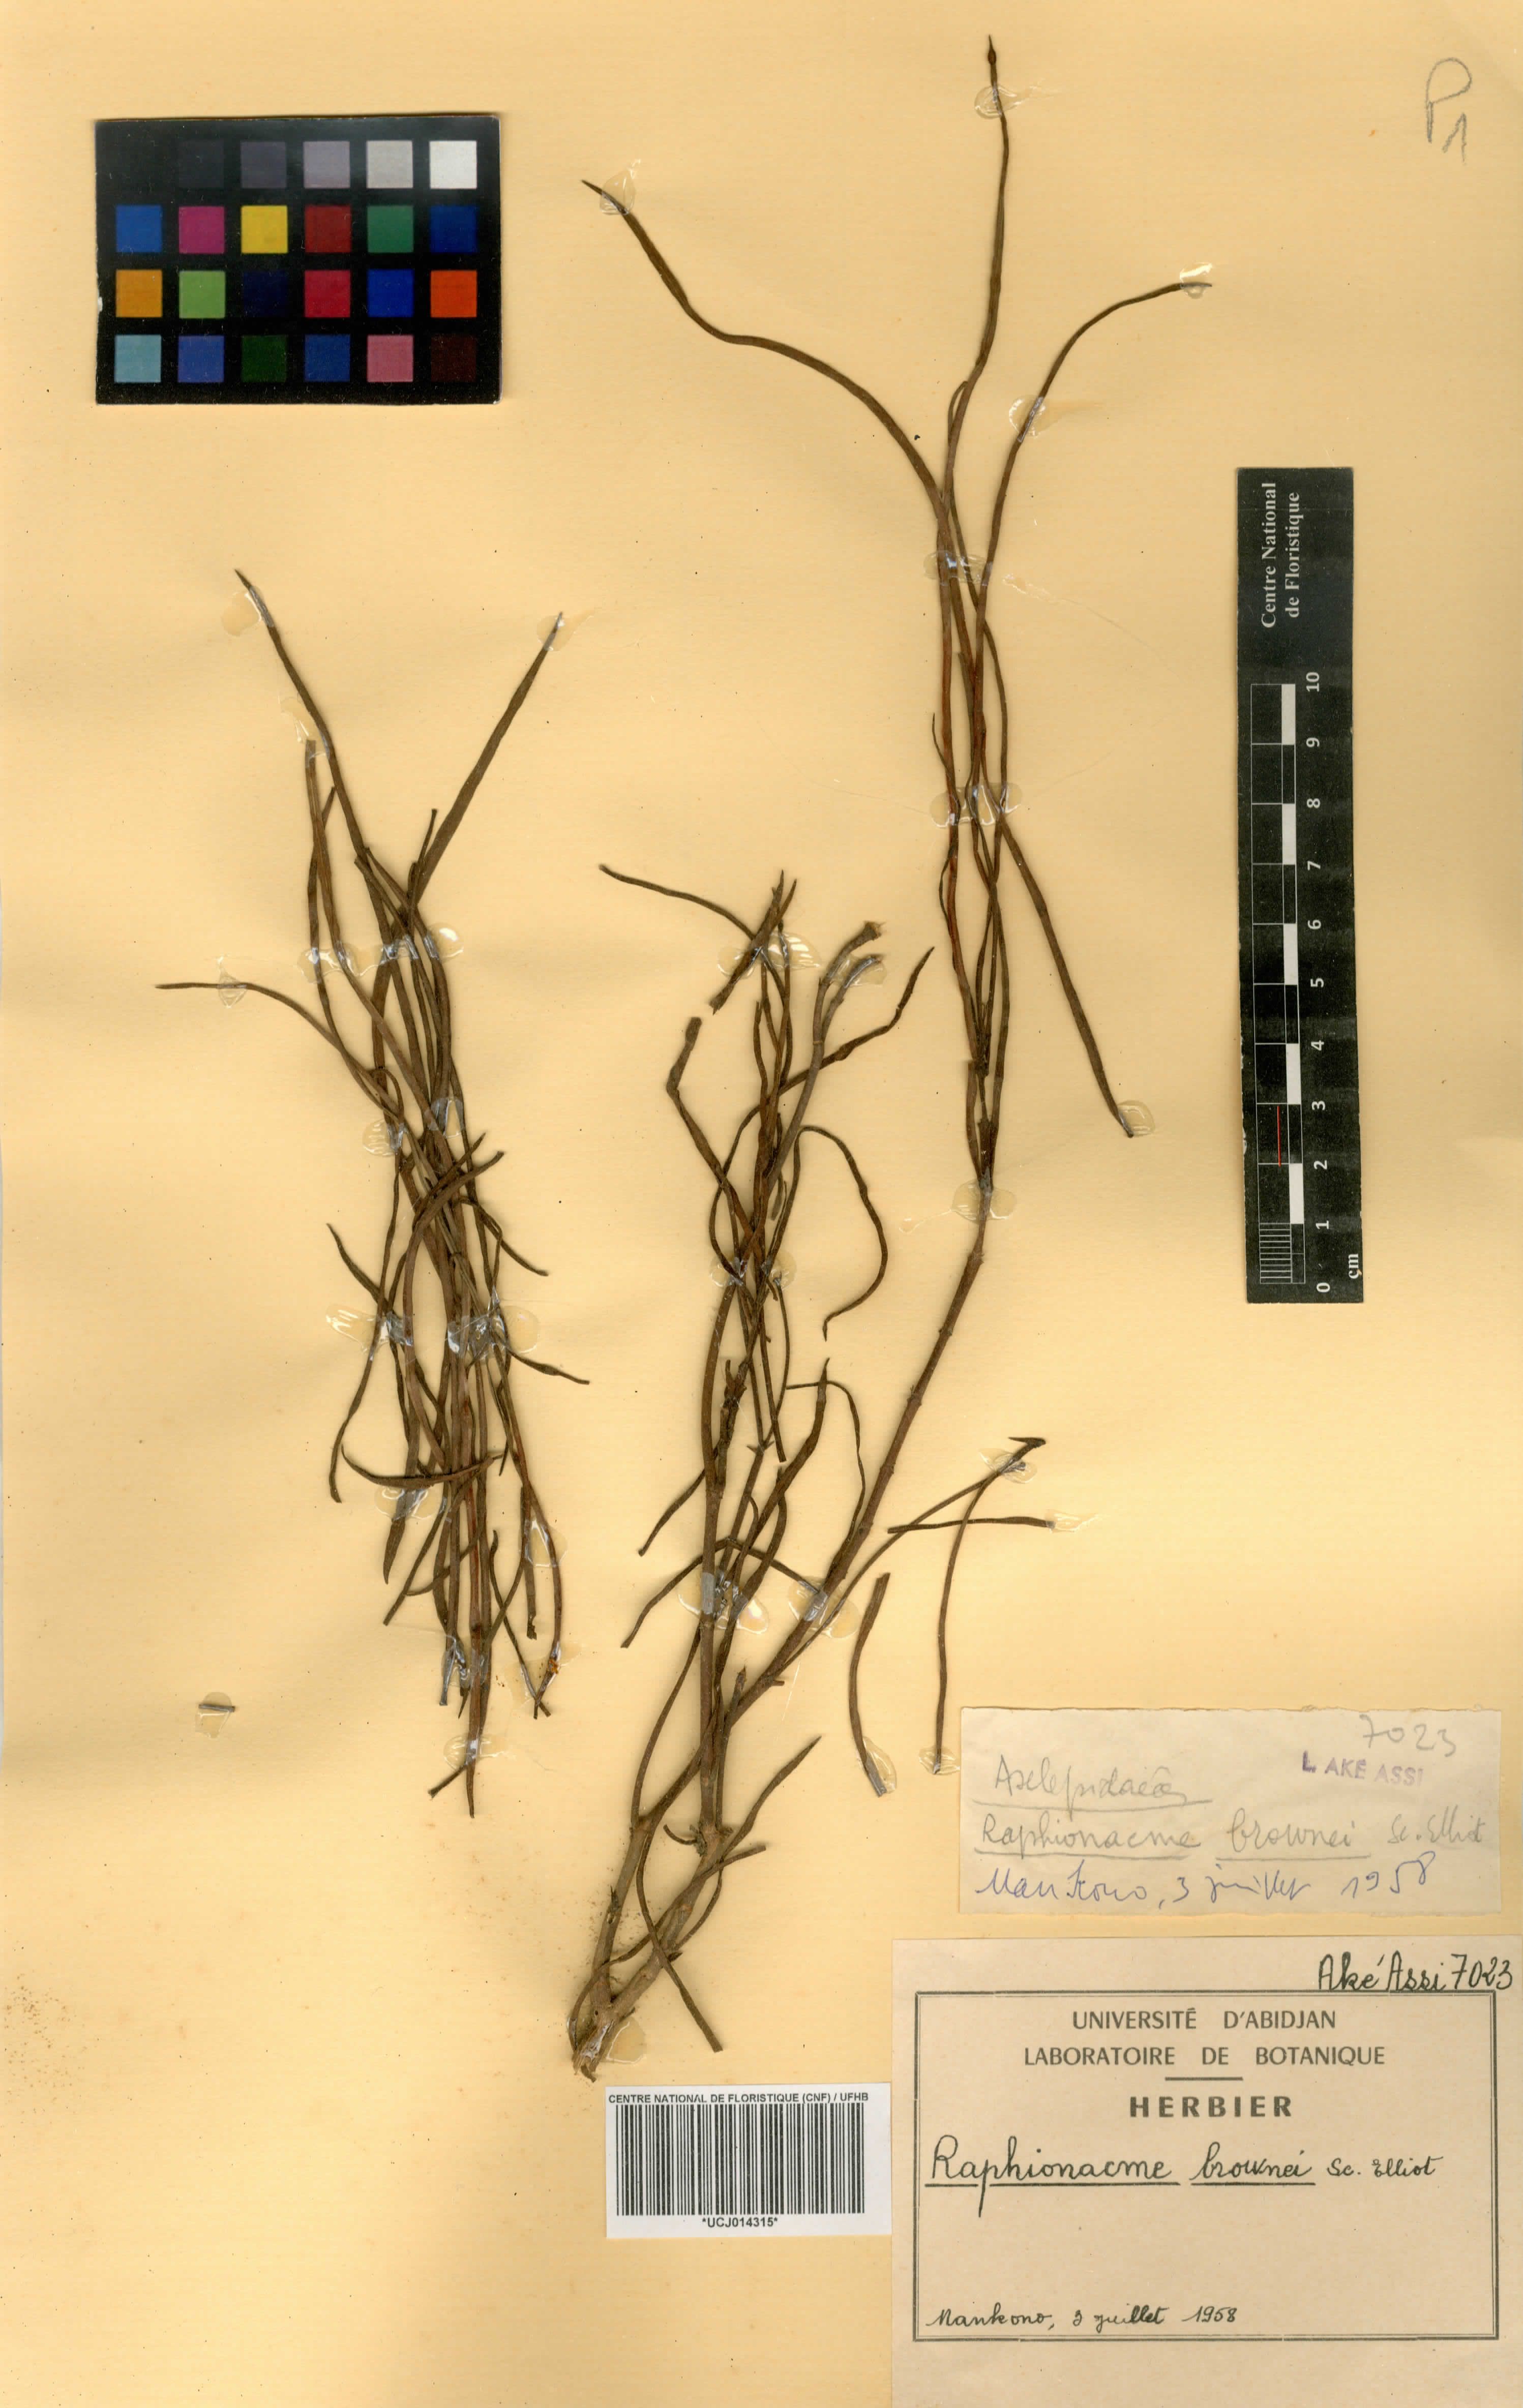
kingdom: Plantae
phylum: Tracheophyta
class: Magnoliopsida
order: Gentianales
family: Apocynaceae
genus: Raphionacme
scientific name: Raphionacme brownii
